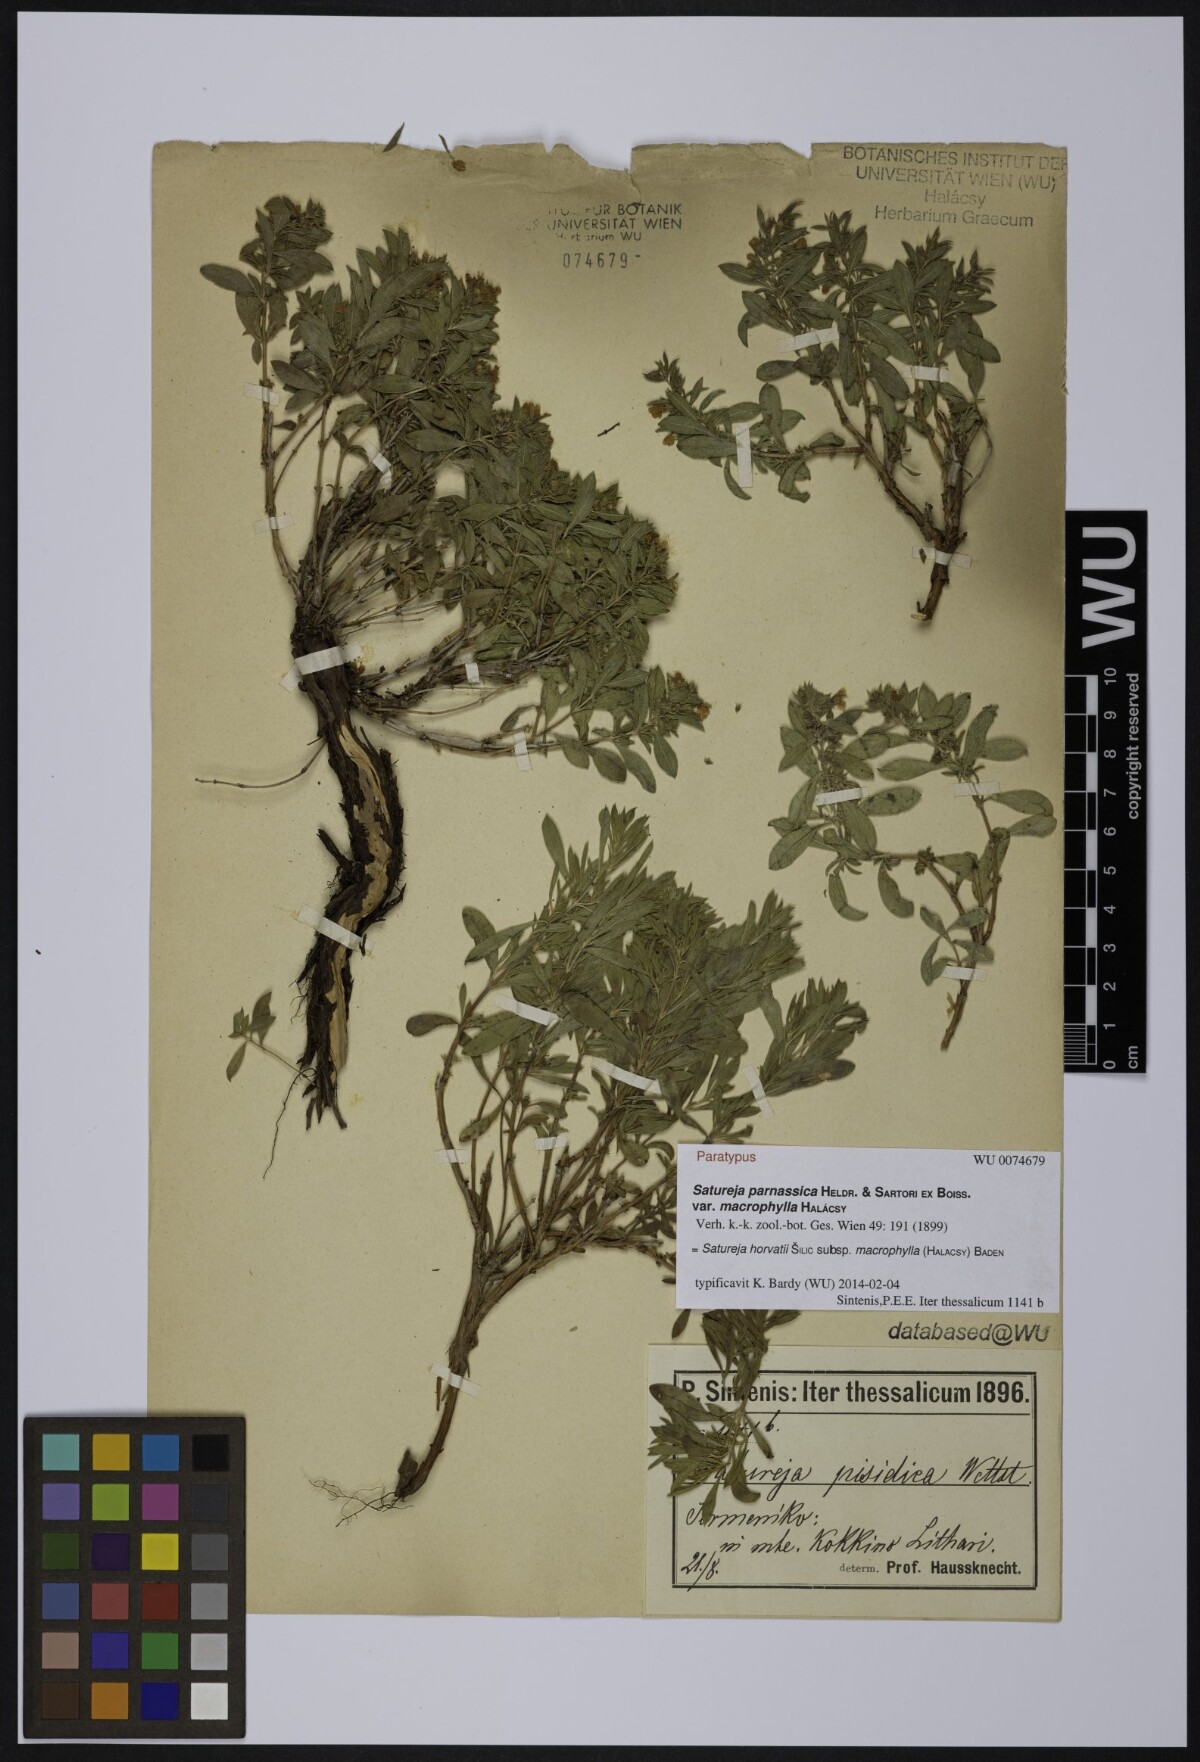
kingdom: Plantae
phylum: Tracheophyta
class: Magnoliopsida
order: Lamiales
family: Lamiaceae
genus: Satureja
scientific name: Satureja horvatii
